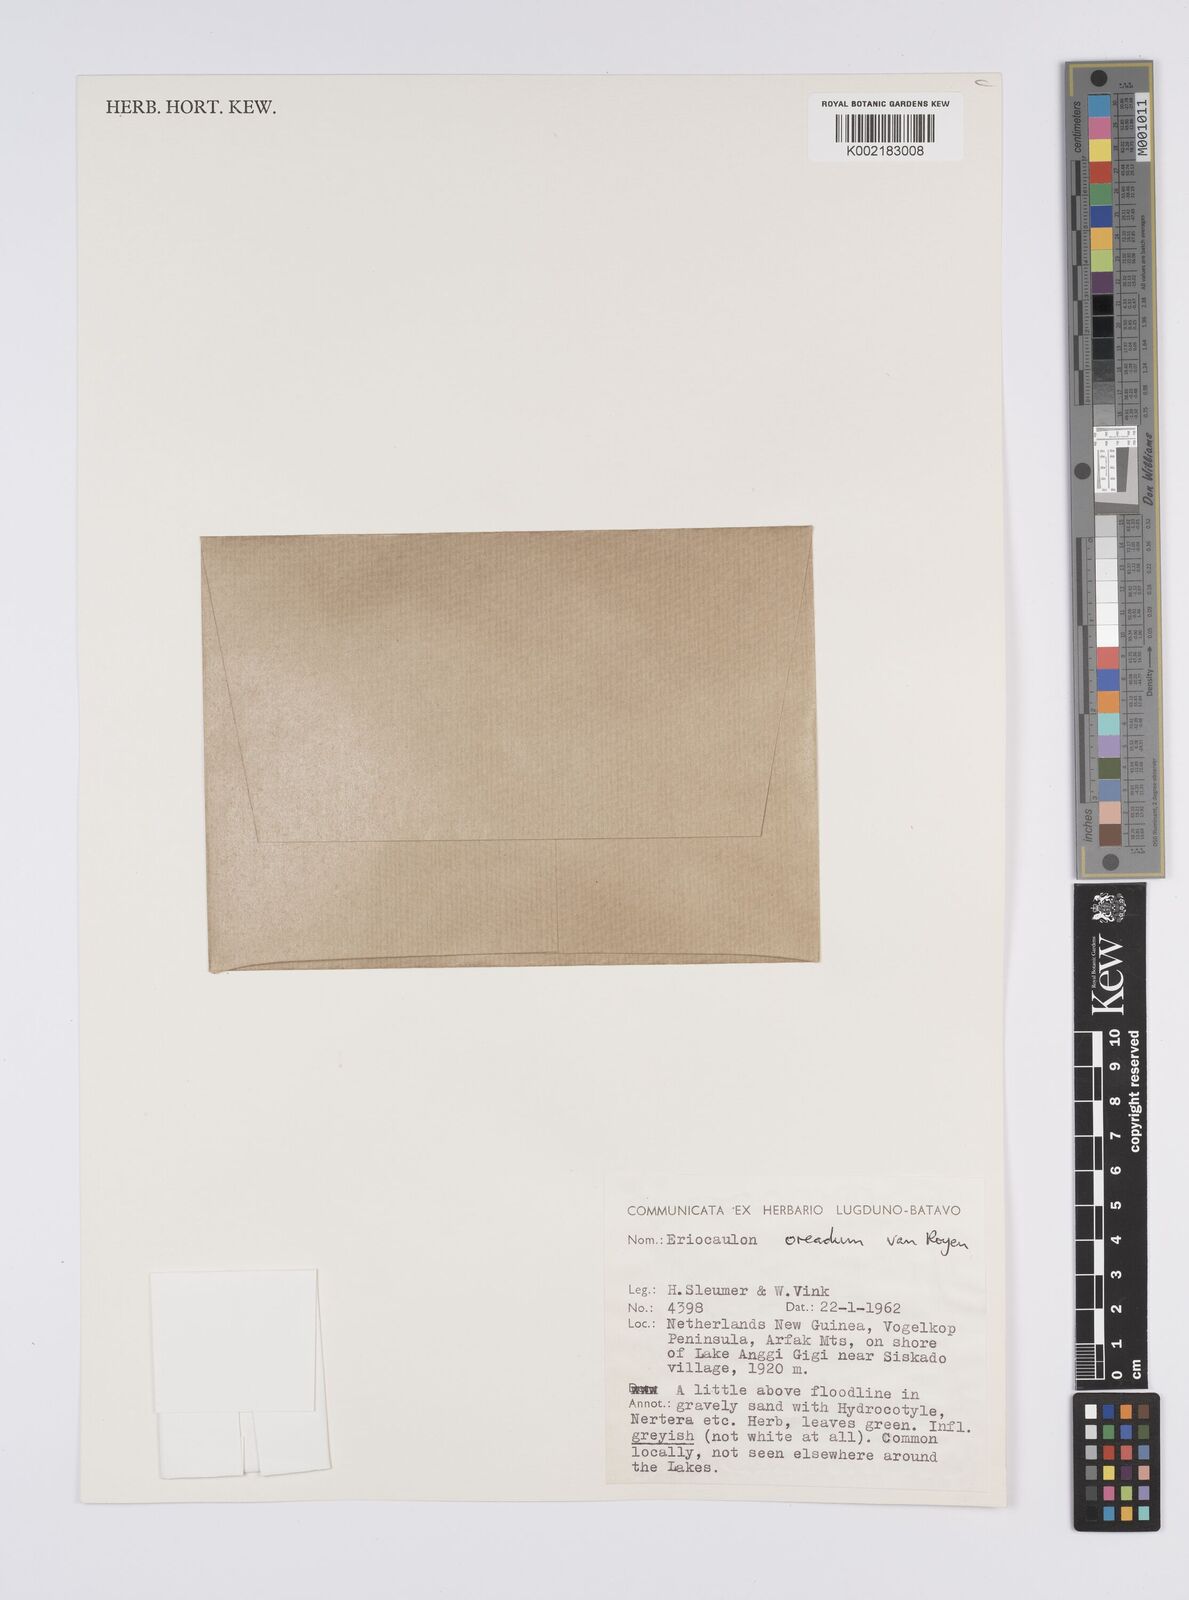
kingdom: Plantae
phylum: Tracheophyta
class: Liliopsida
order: Poales
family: Eriocaulaceae
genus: Eriocaulon
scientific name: Eriocaulon oreadum
